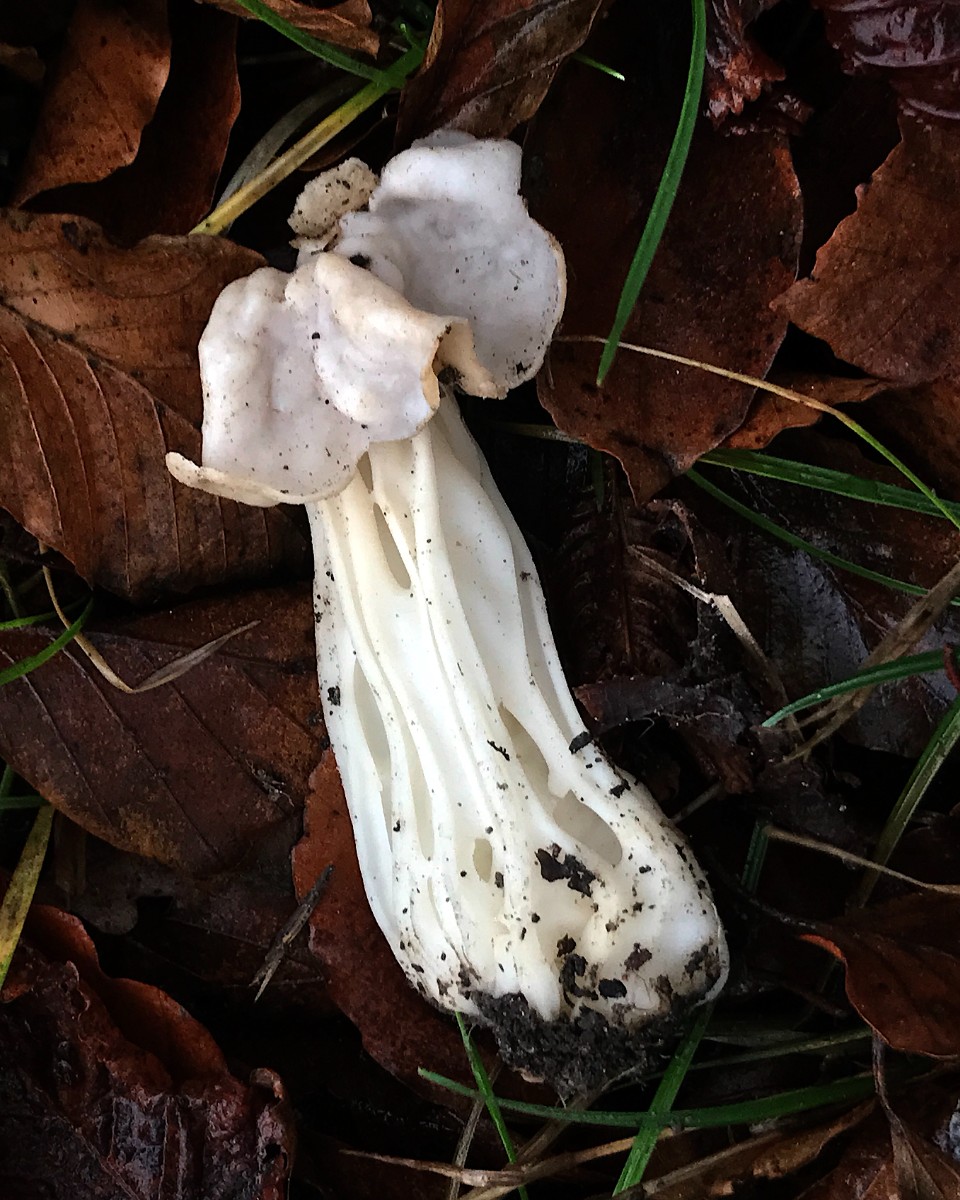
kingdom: Fungi
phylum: Ascomycota
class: Pezizomycetes
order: Pezizales
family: Helvellaceae
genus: Helvella
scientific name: Helvella crispa
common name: kruset foldhat
